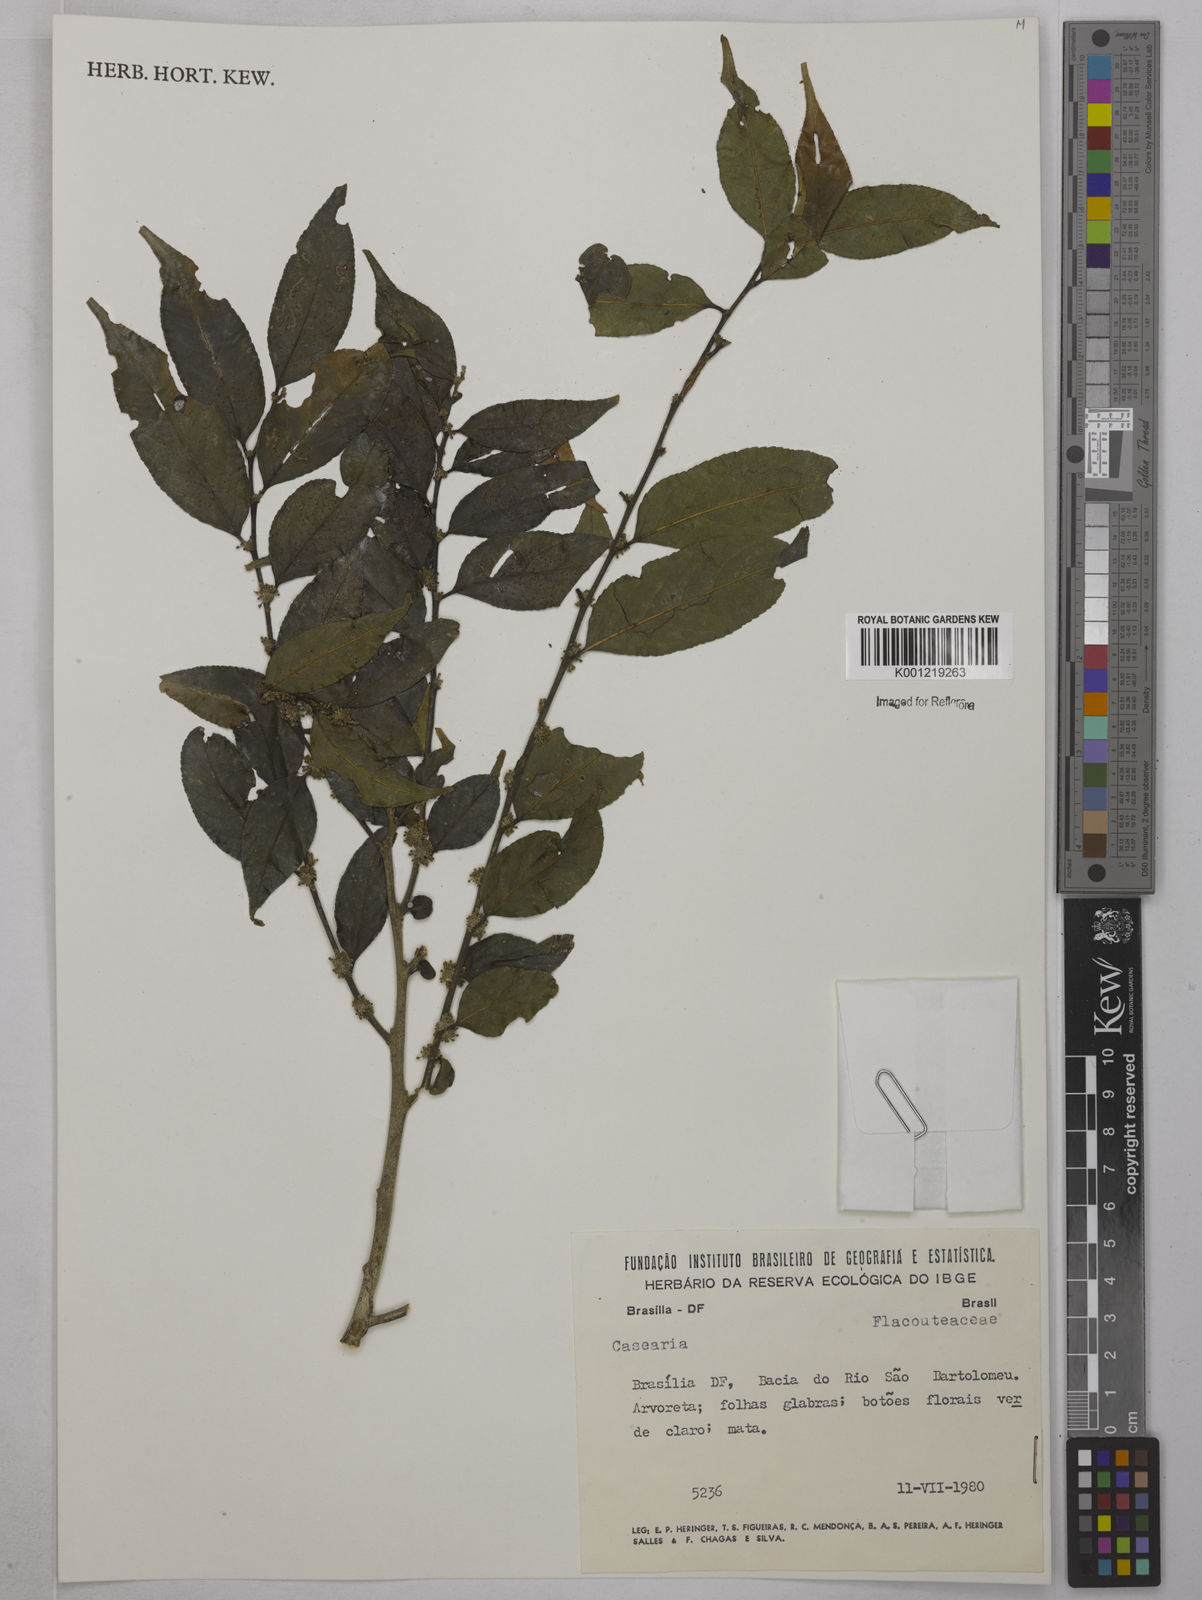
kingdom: Plantae
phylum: Tracheophyta
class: Magnoliopsida
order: Malpighiales
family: Salicaceae
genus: Casearia
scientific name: Casearia
